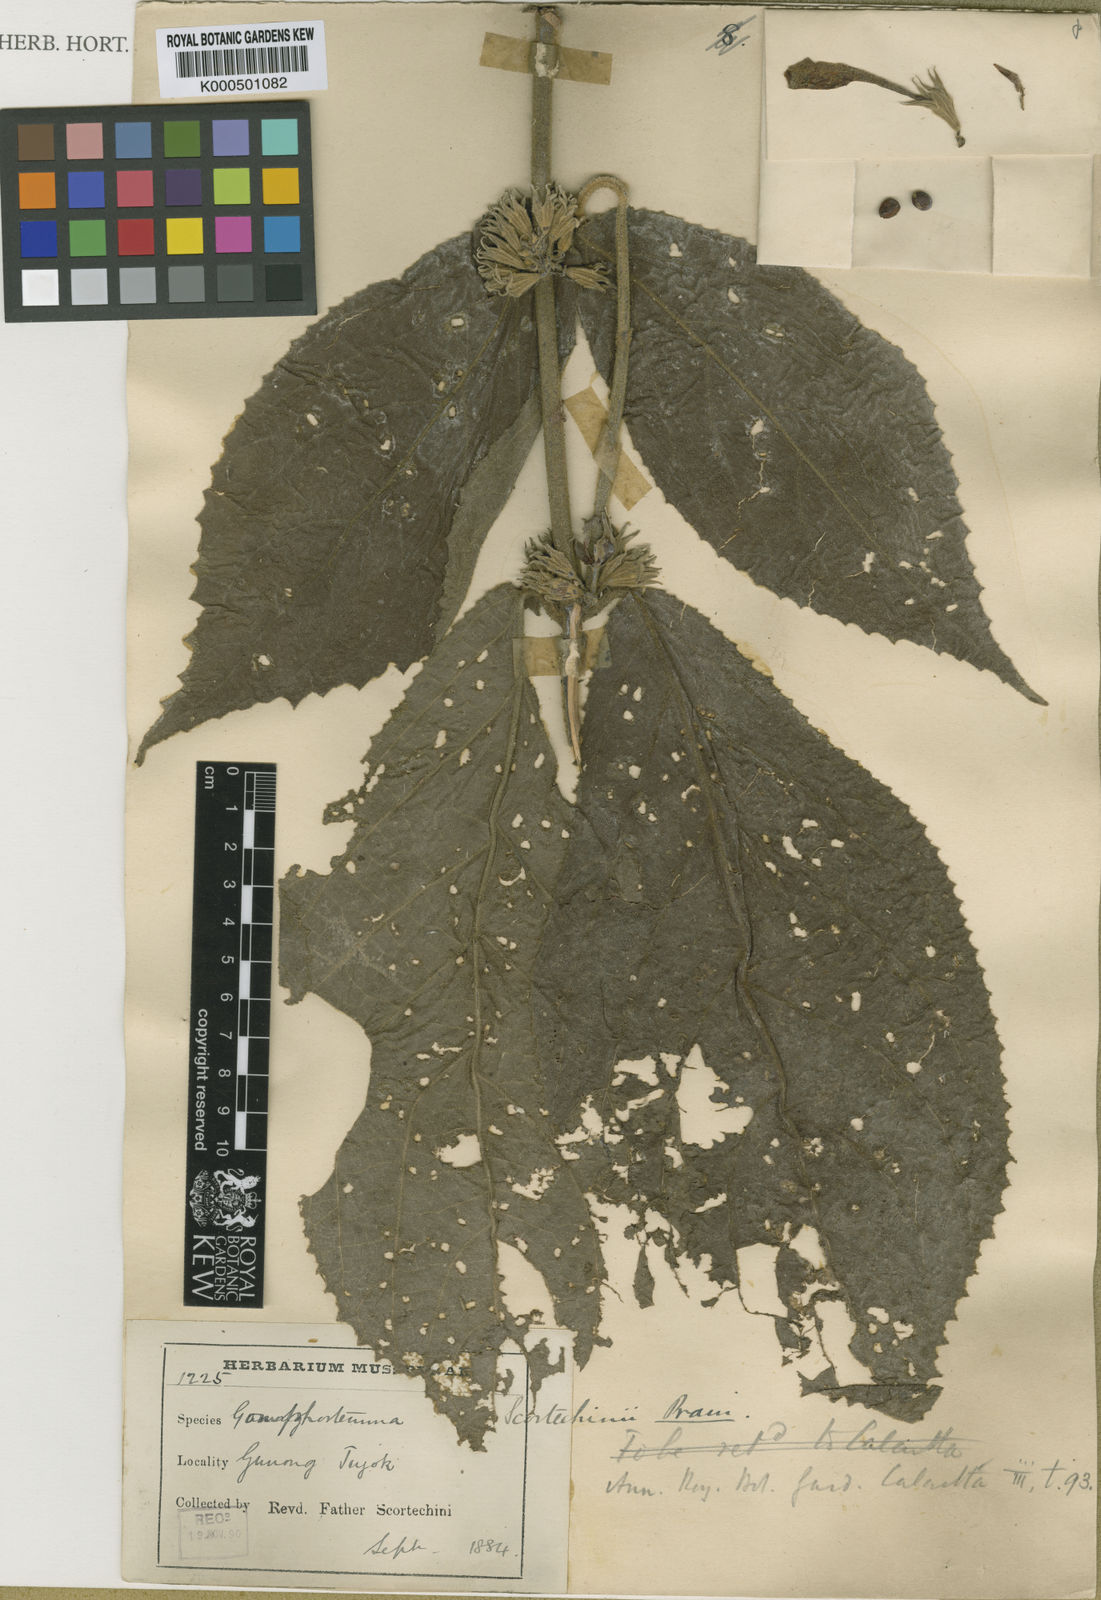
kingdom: Plantae
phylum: Tracheophyta
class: Magnoliopsida
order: Lamiales
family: Lamiaceae
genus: Gomphostemma
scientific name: Gomphostemma javanicum
